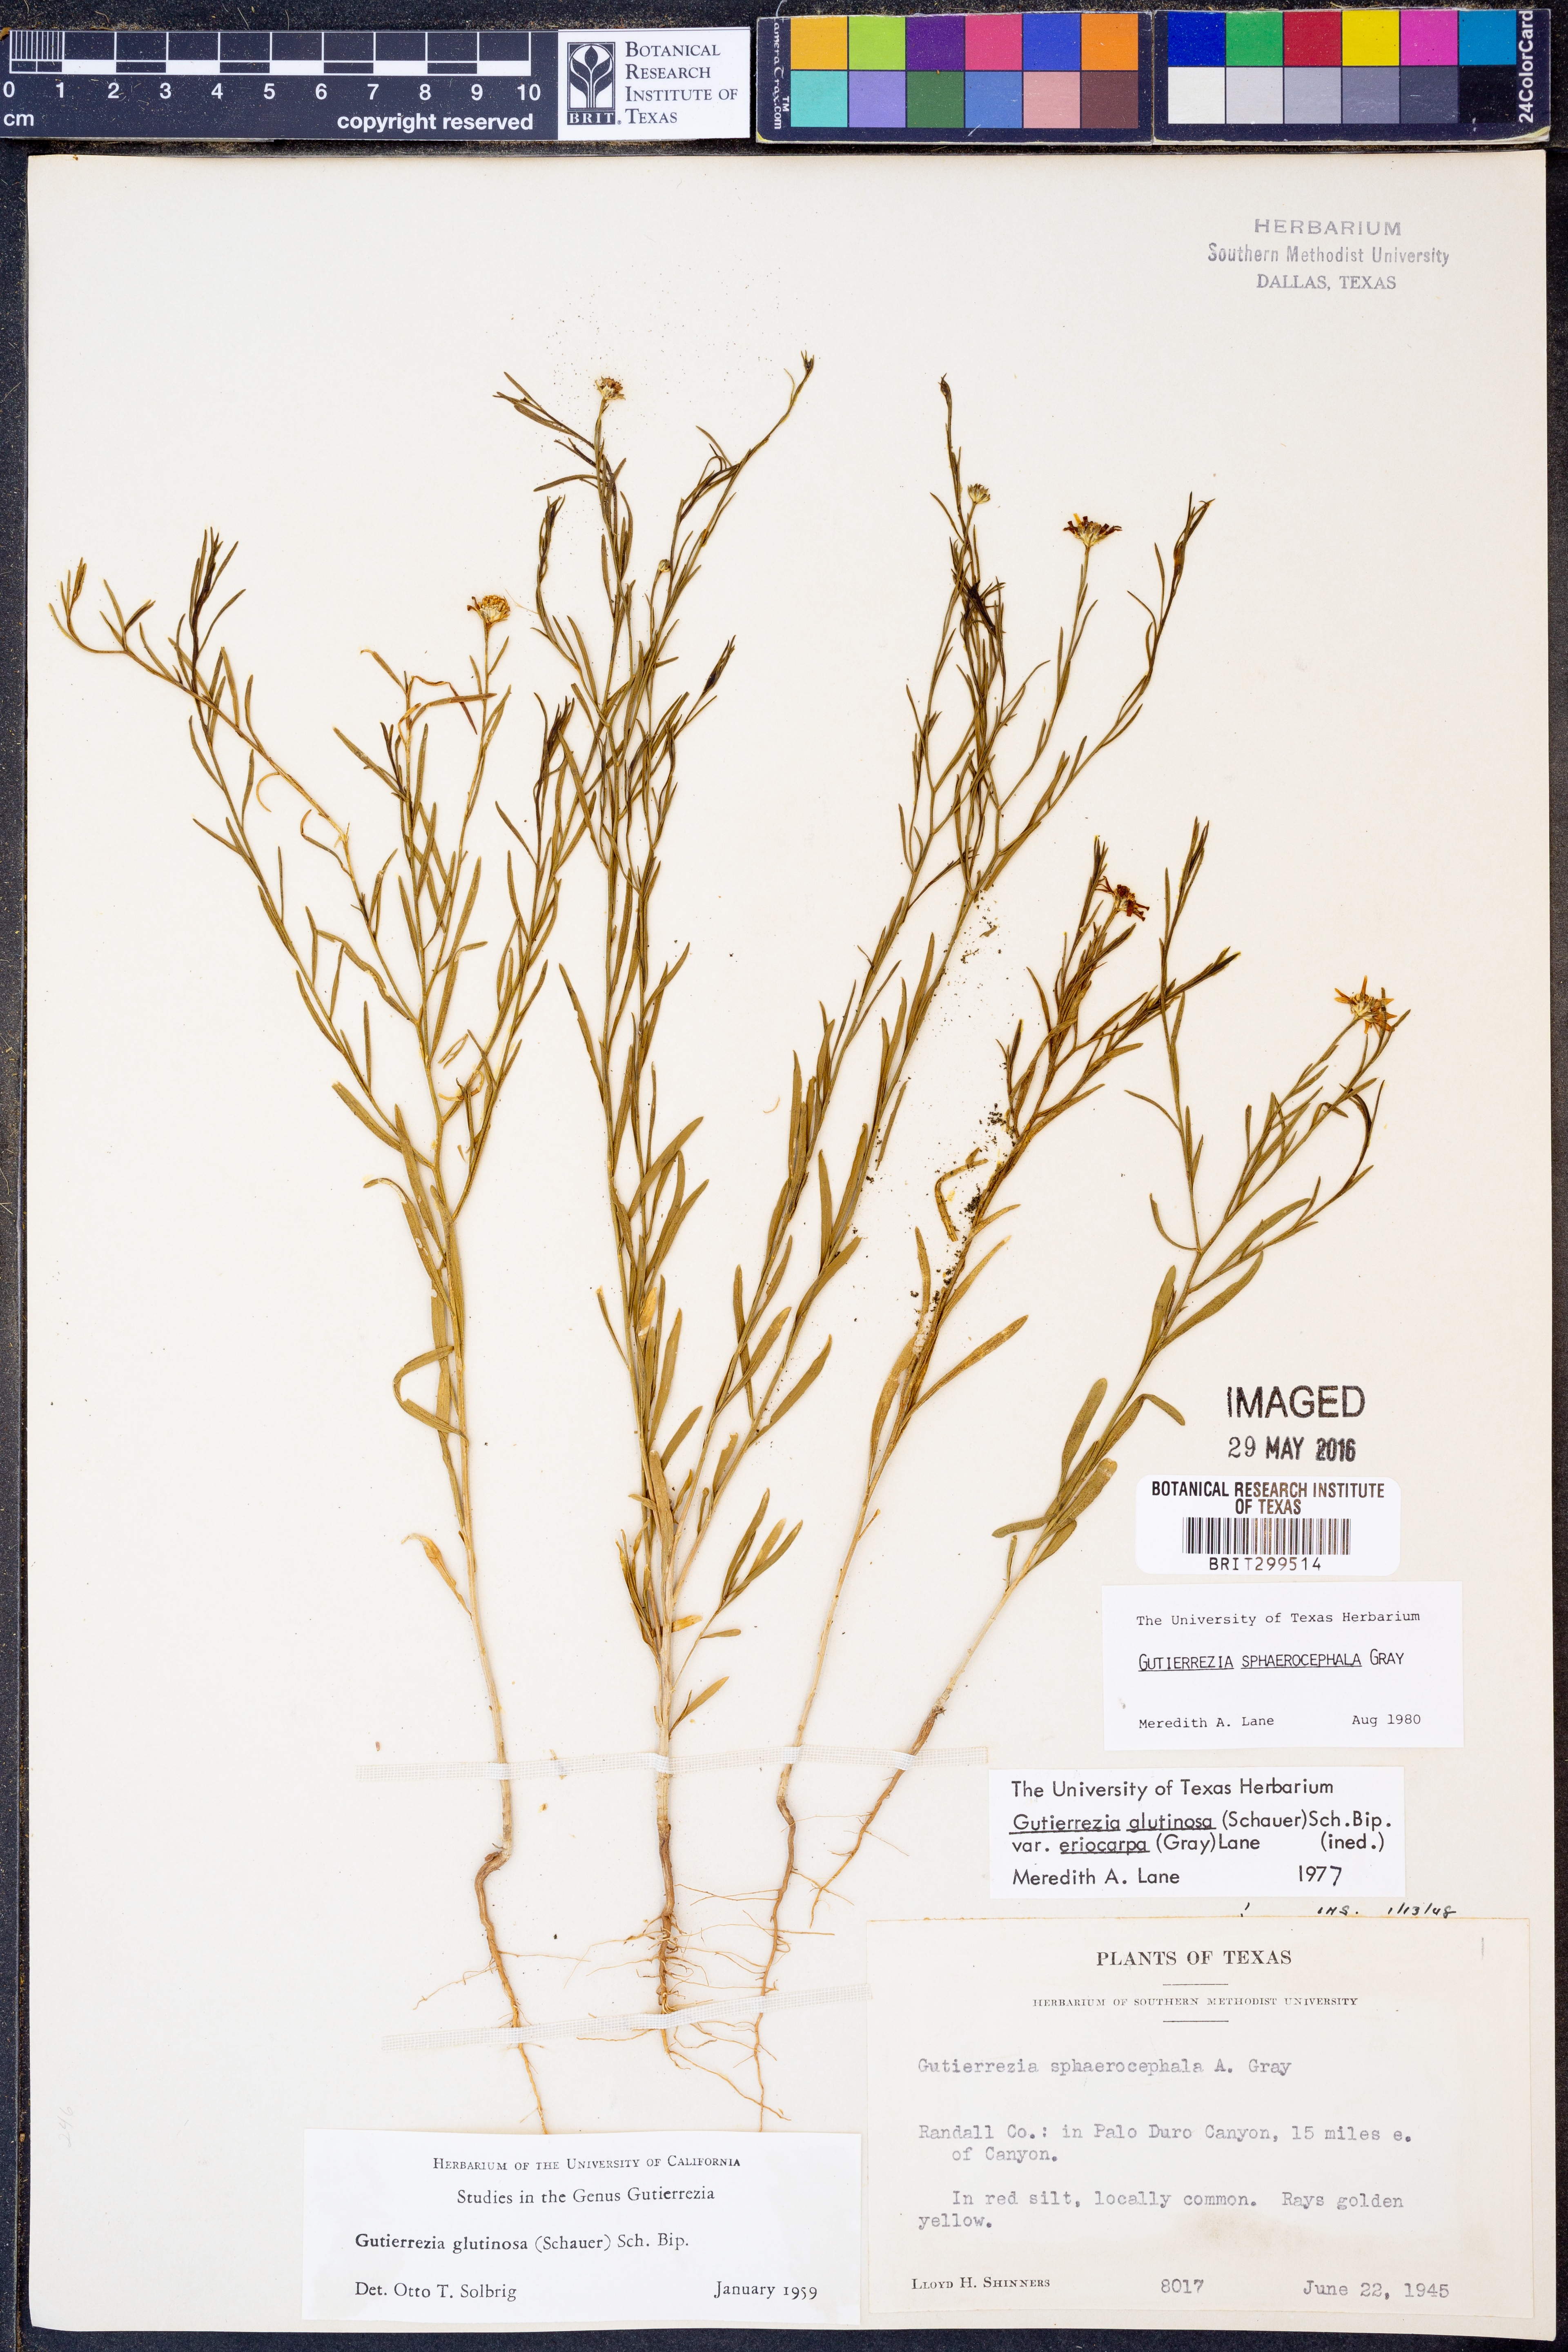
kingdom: Plantae
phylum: Tracheophyta
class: Magnoliopsida
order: Asterales
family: Asteraceae
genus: Gutierrezia
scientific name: Gutierrezia sphaerocephala
